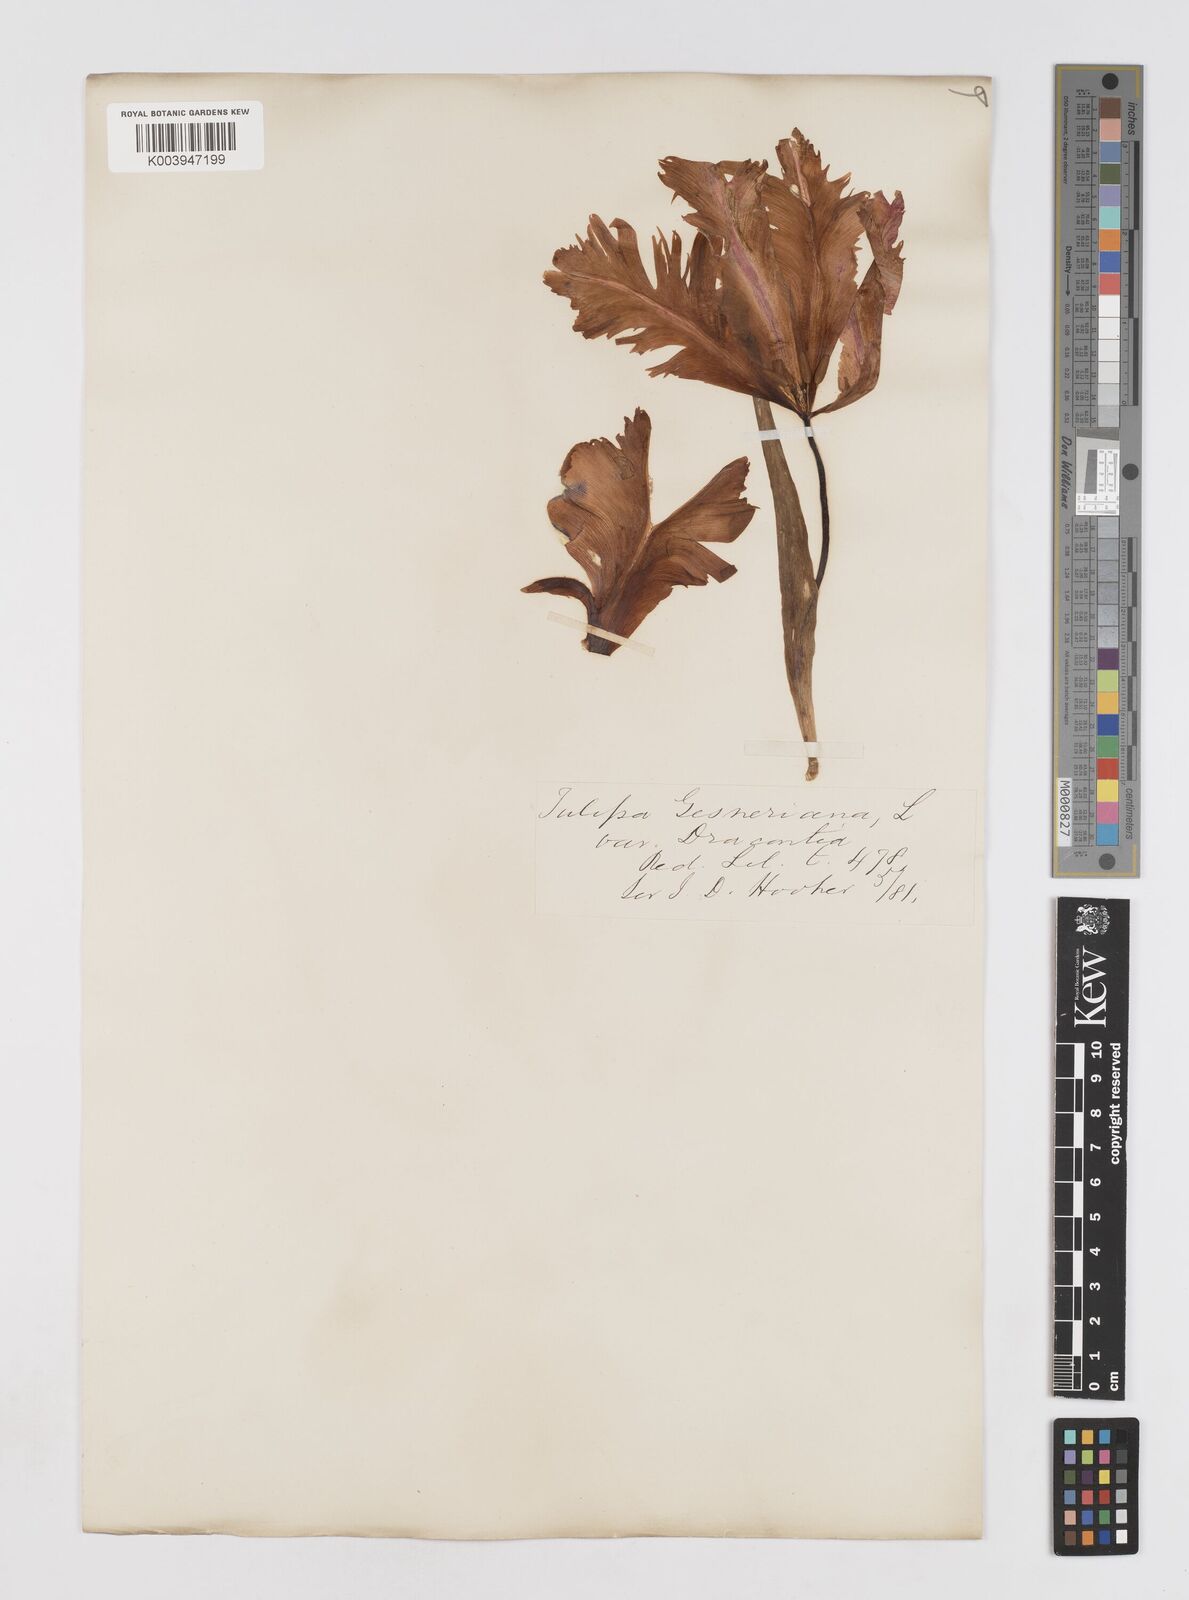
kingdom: Plantae
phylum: Tracheophyta
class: Liliopsida
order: Liliales
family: Liliaceae
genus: Tulipa
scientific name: Tulipa gesneriana
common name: Garden tulip
